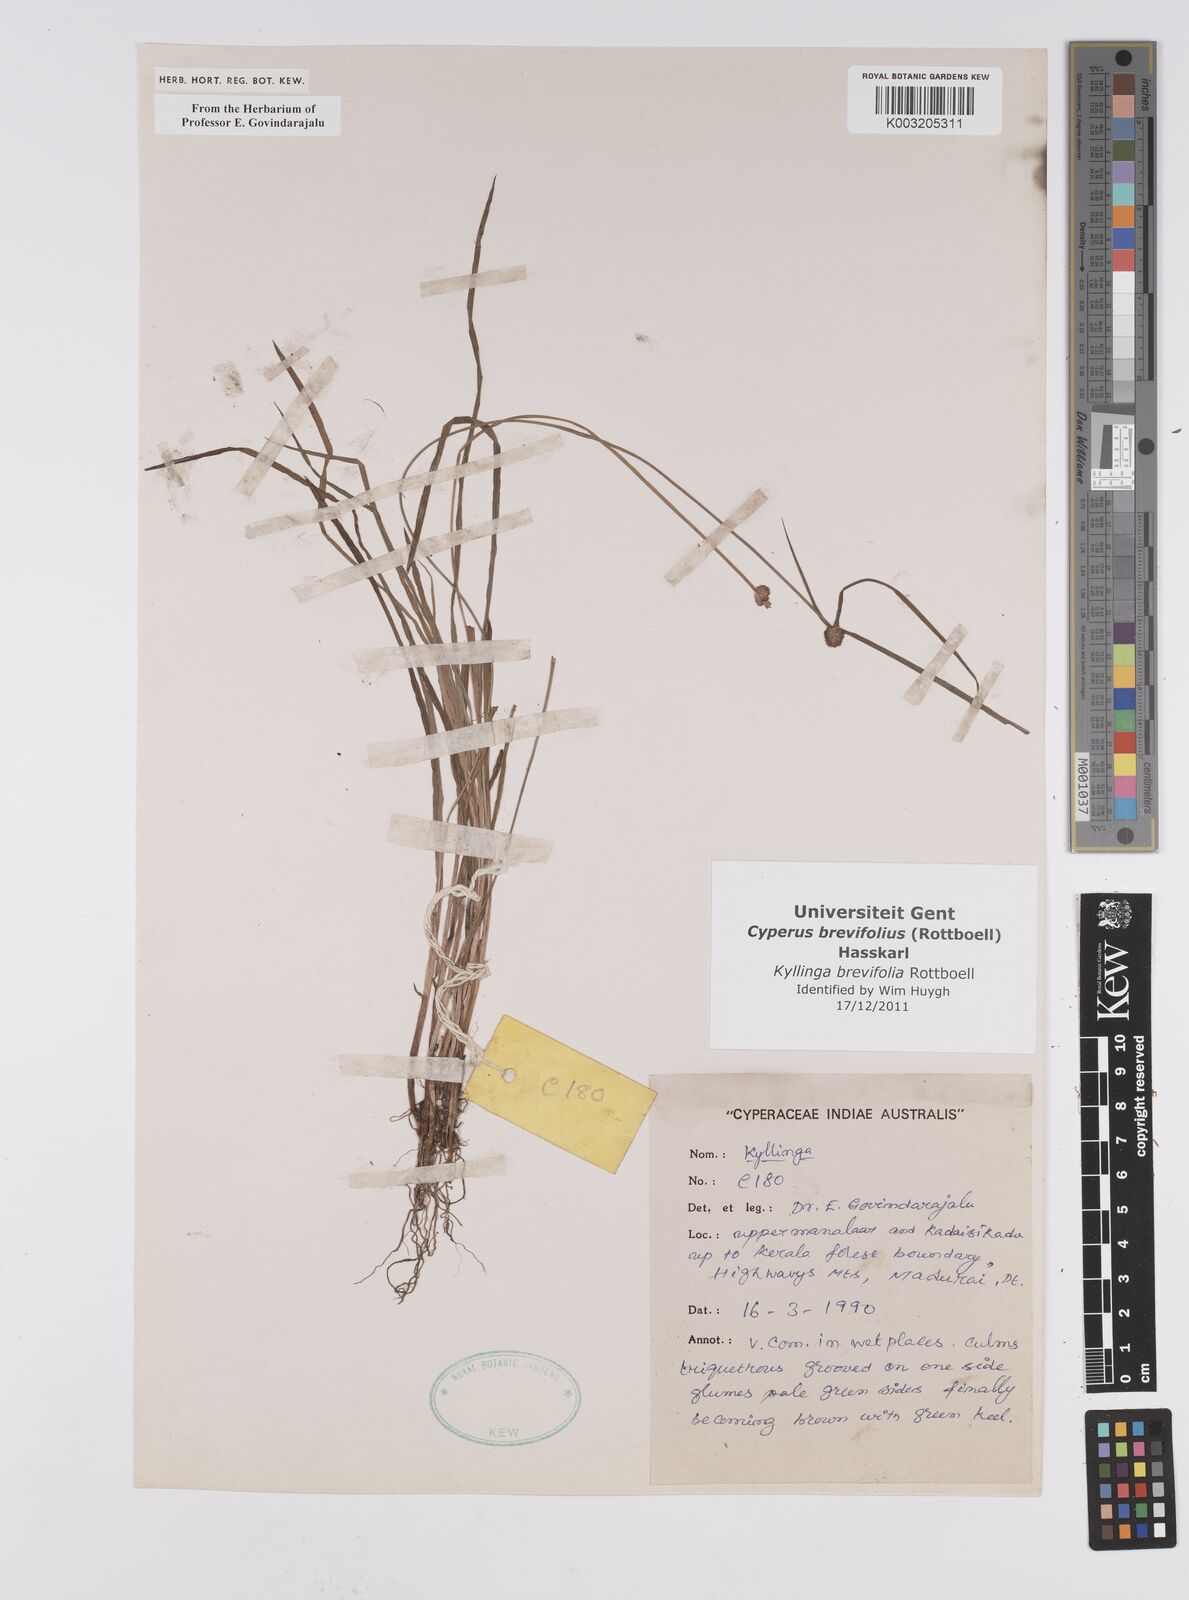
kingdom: Plantae
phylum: Tracheophyta
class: Liliopsida
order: Poales
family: Cyperaceae
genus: Cyperus
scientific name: Cyperus brevifolius
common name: Globe kyllinga
